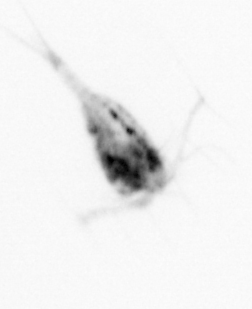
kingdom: Animalia
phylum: Arthropoda
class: Copepoda
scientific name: Copepoda
